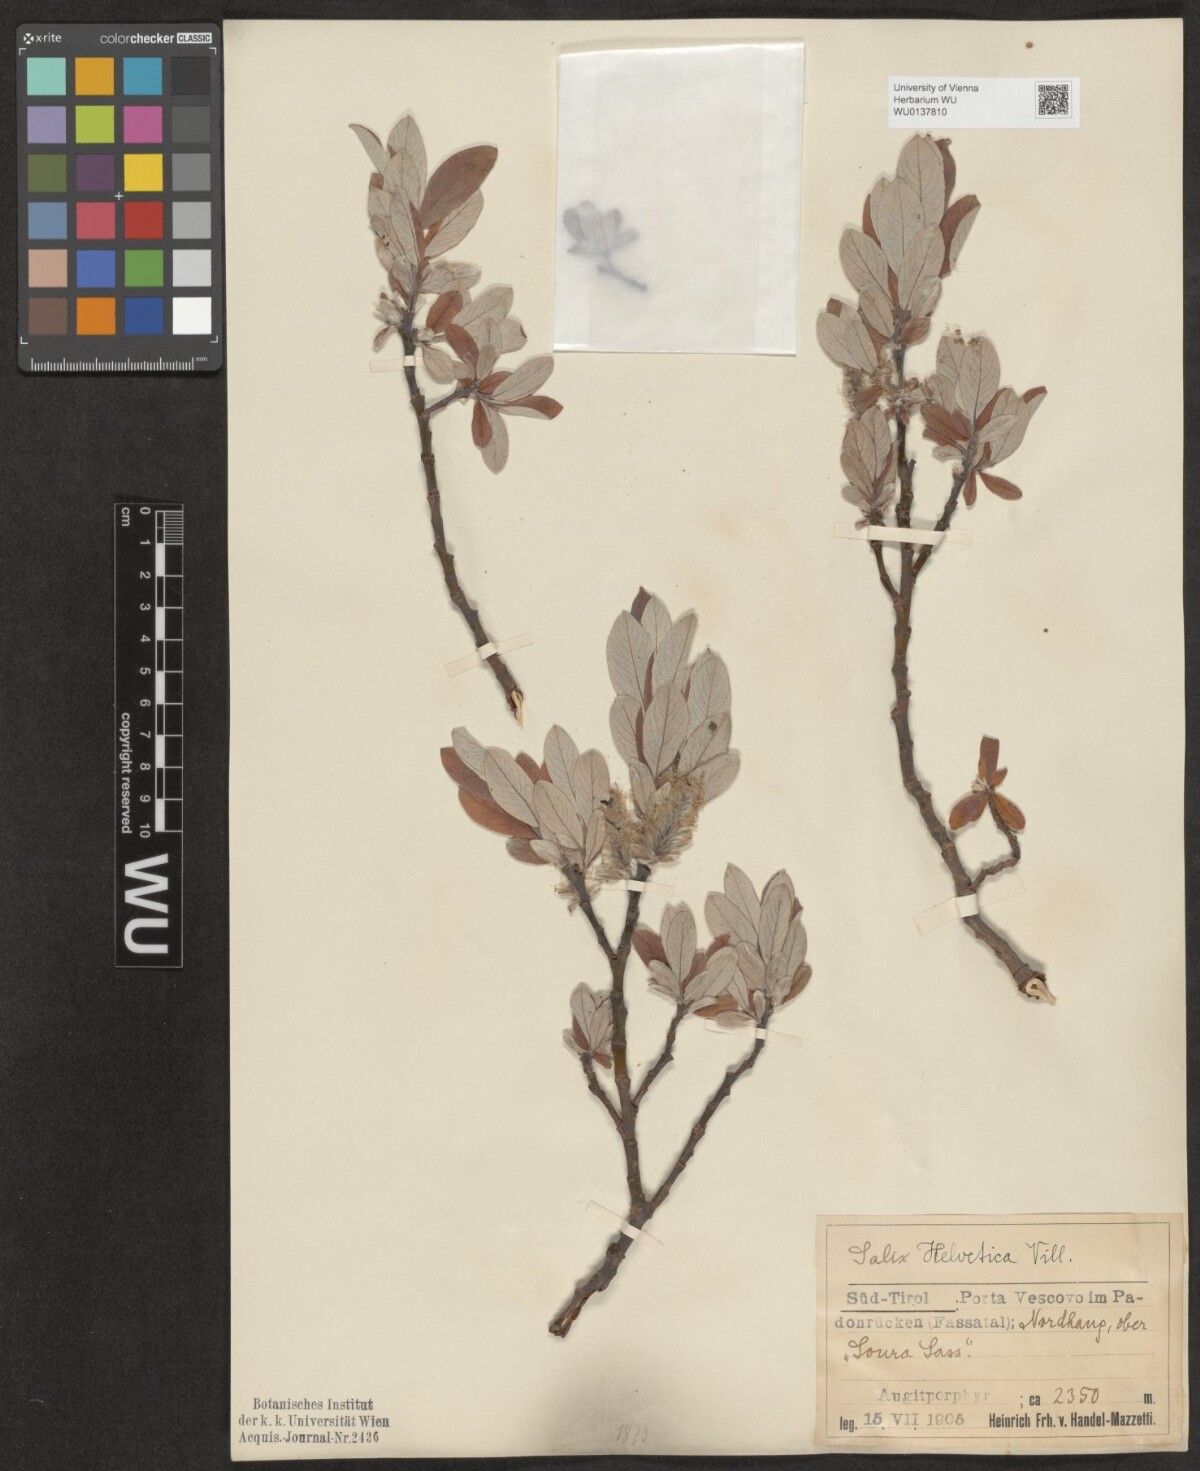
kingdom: Plantae
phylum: Tracheophyta
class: Magnoliopsida
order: Malpighiales
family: Salicaceae
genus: Salix
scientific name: Salix helvetica
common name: Swiss willow
